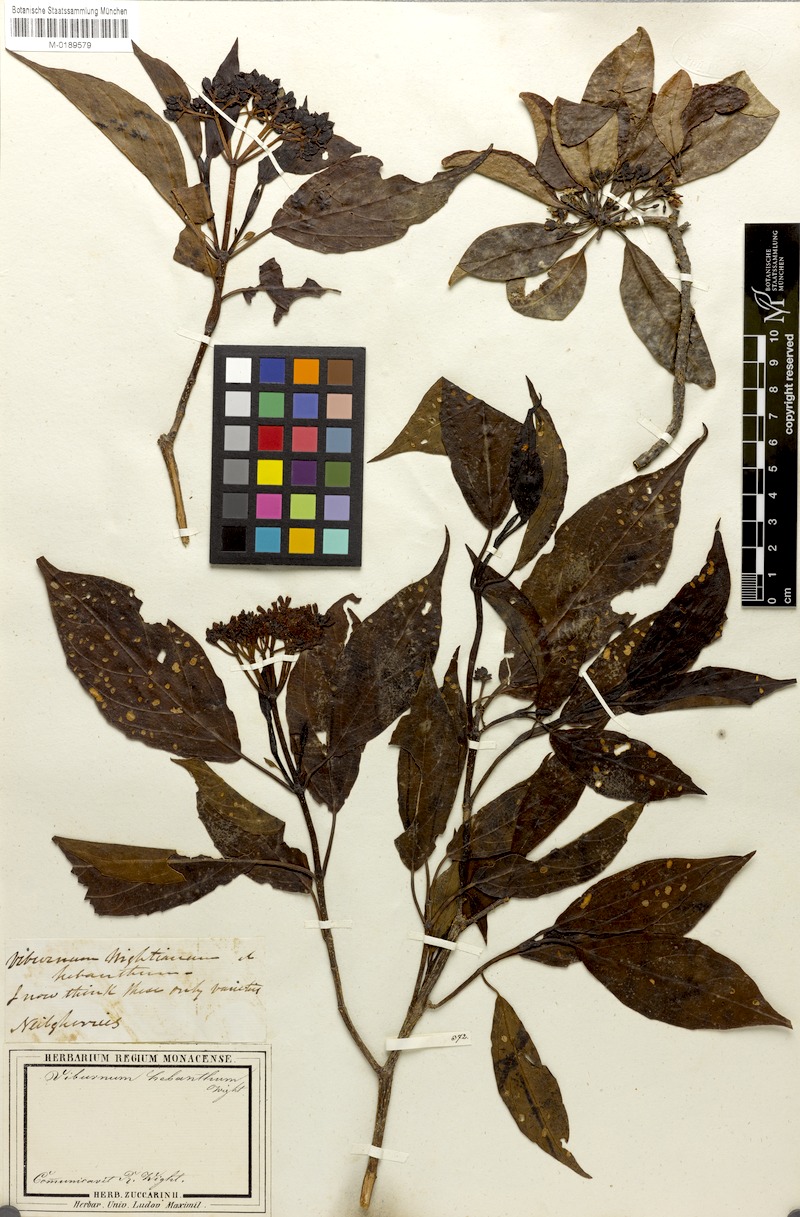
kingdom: Plantae
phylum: Tracheophyta
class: Magnoliopsida
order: Dipsacales
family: Viburnaceae
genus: Viburnum
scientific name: Viburnum coriaceum
